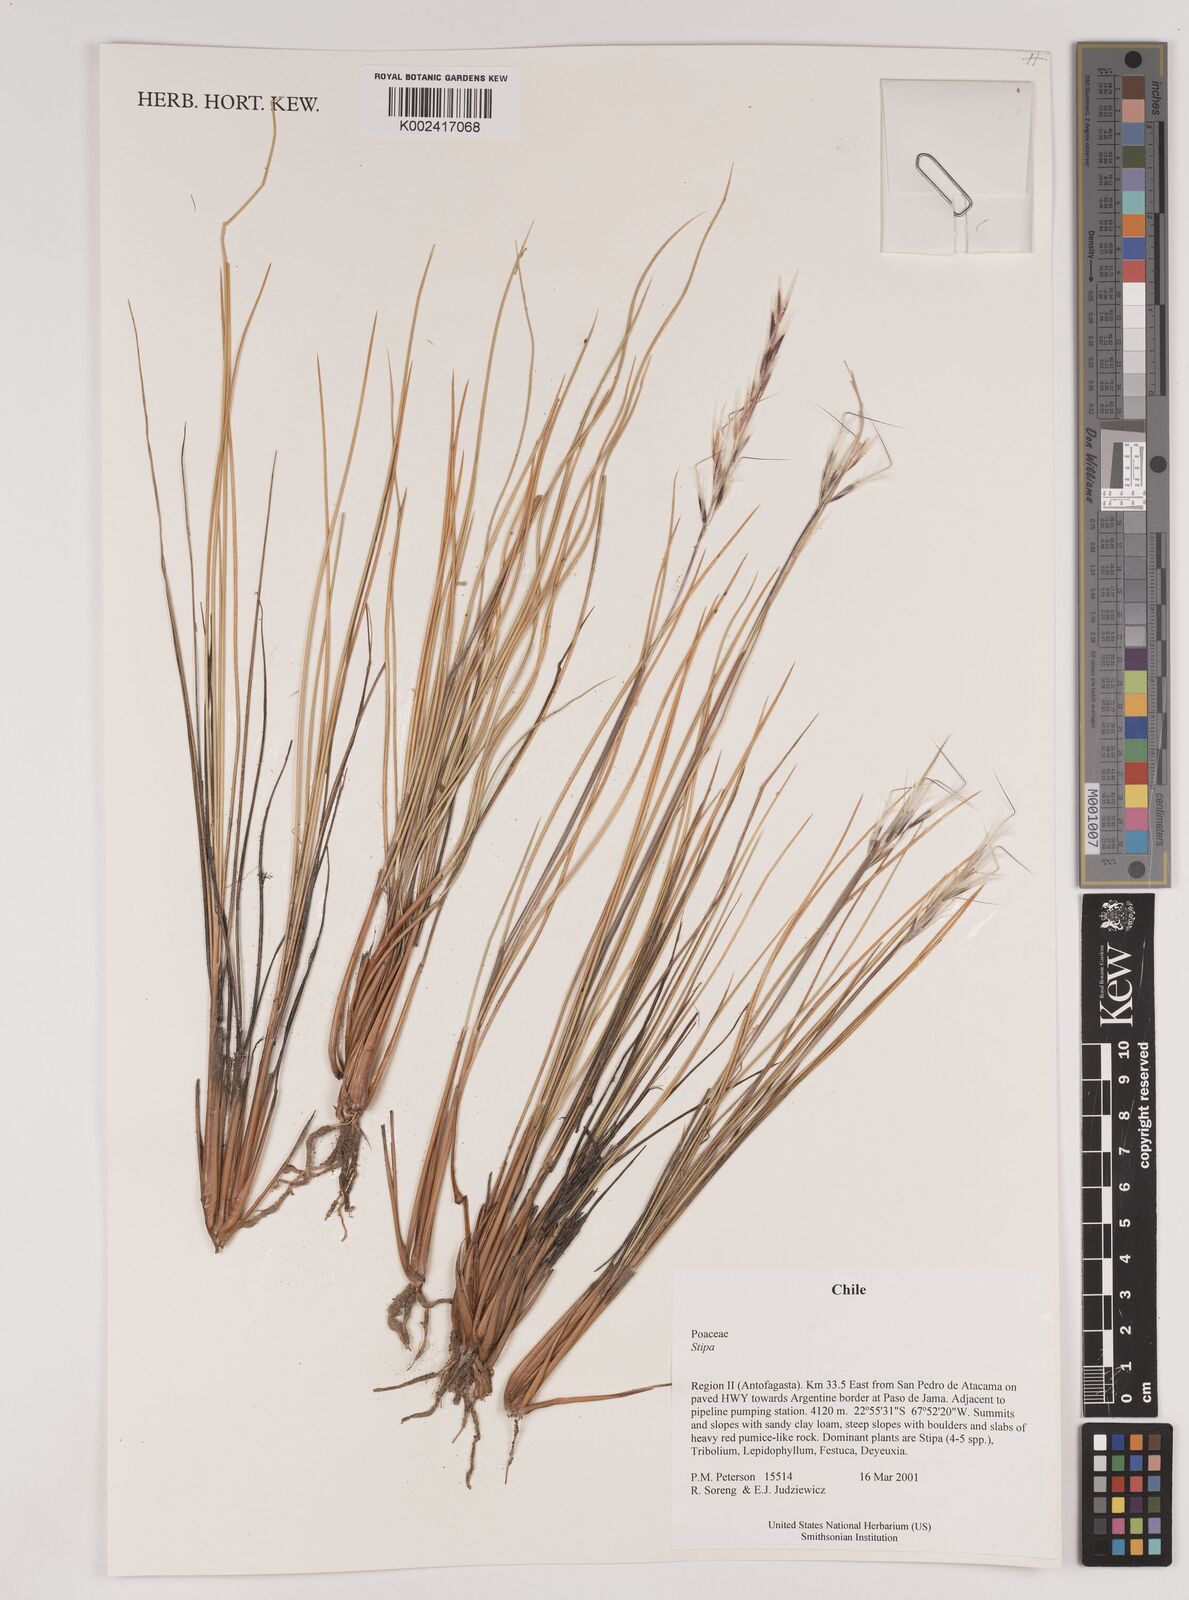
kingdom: Plantae
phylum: Tracheophyta
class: Liliopsida
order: Poales
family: Poaceae
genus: Pappostipa
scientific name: Pappostipa atacamensis
